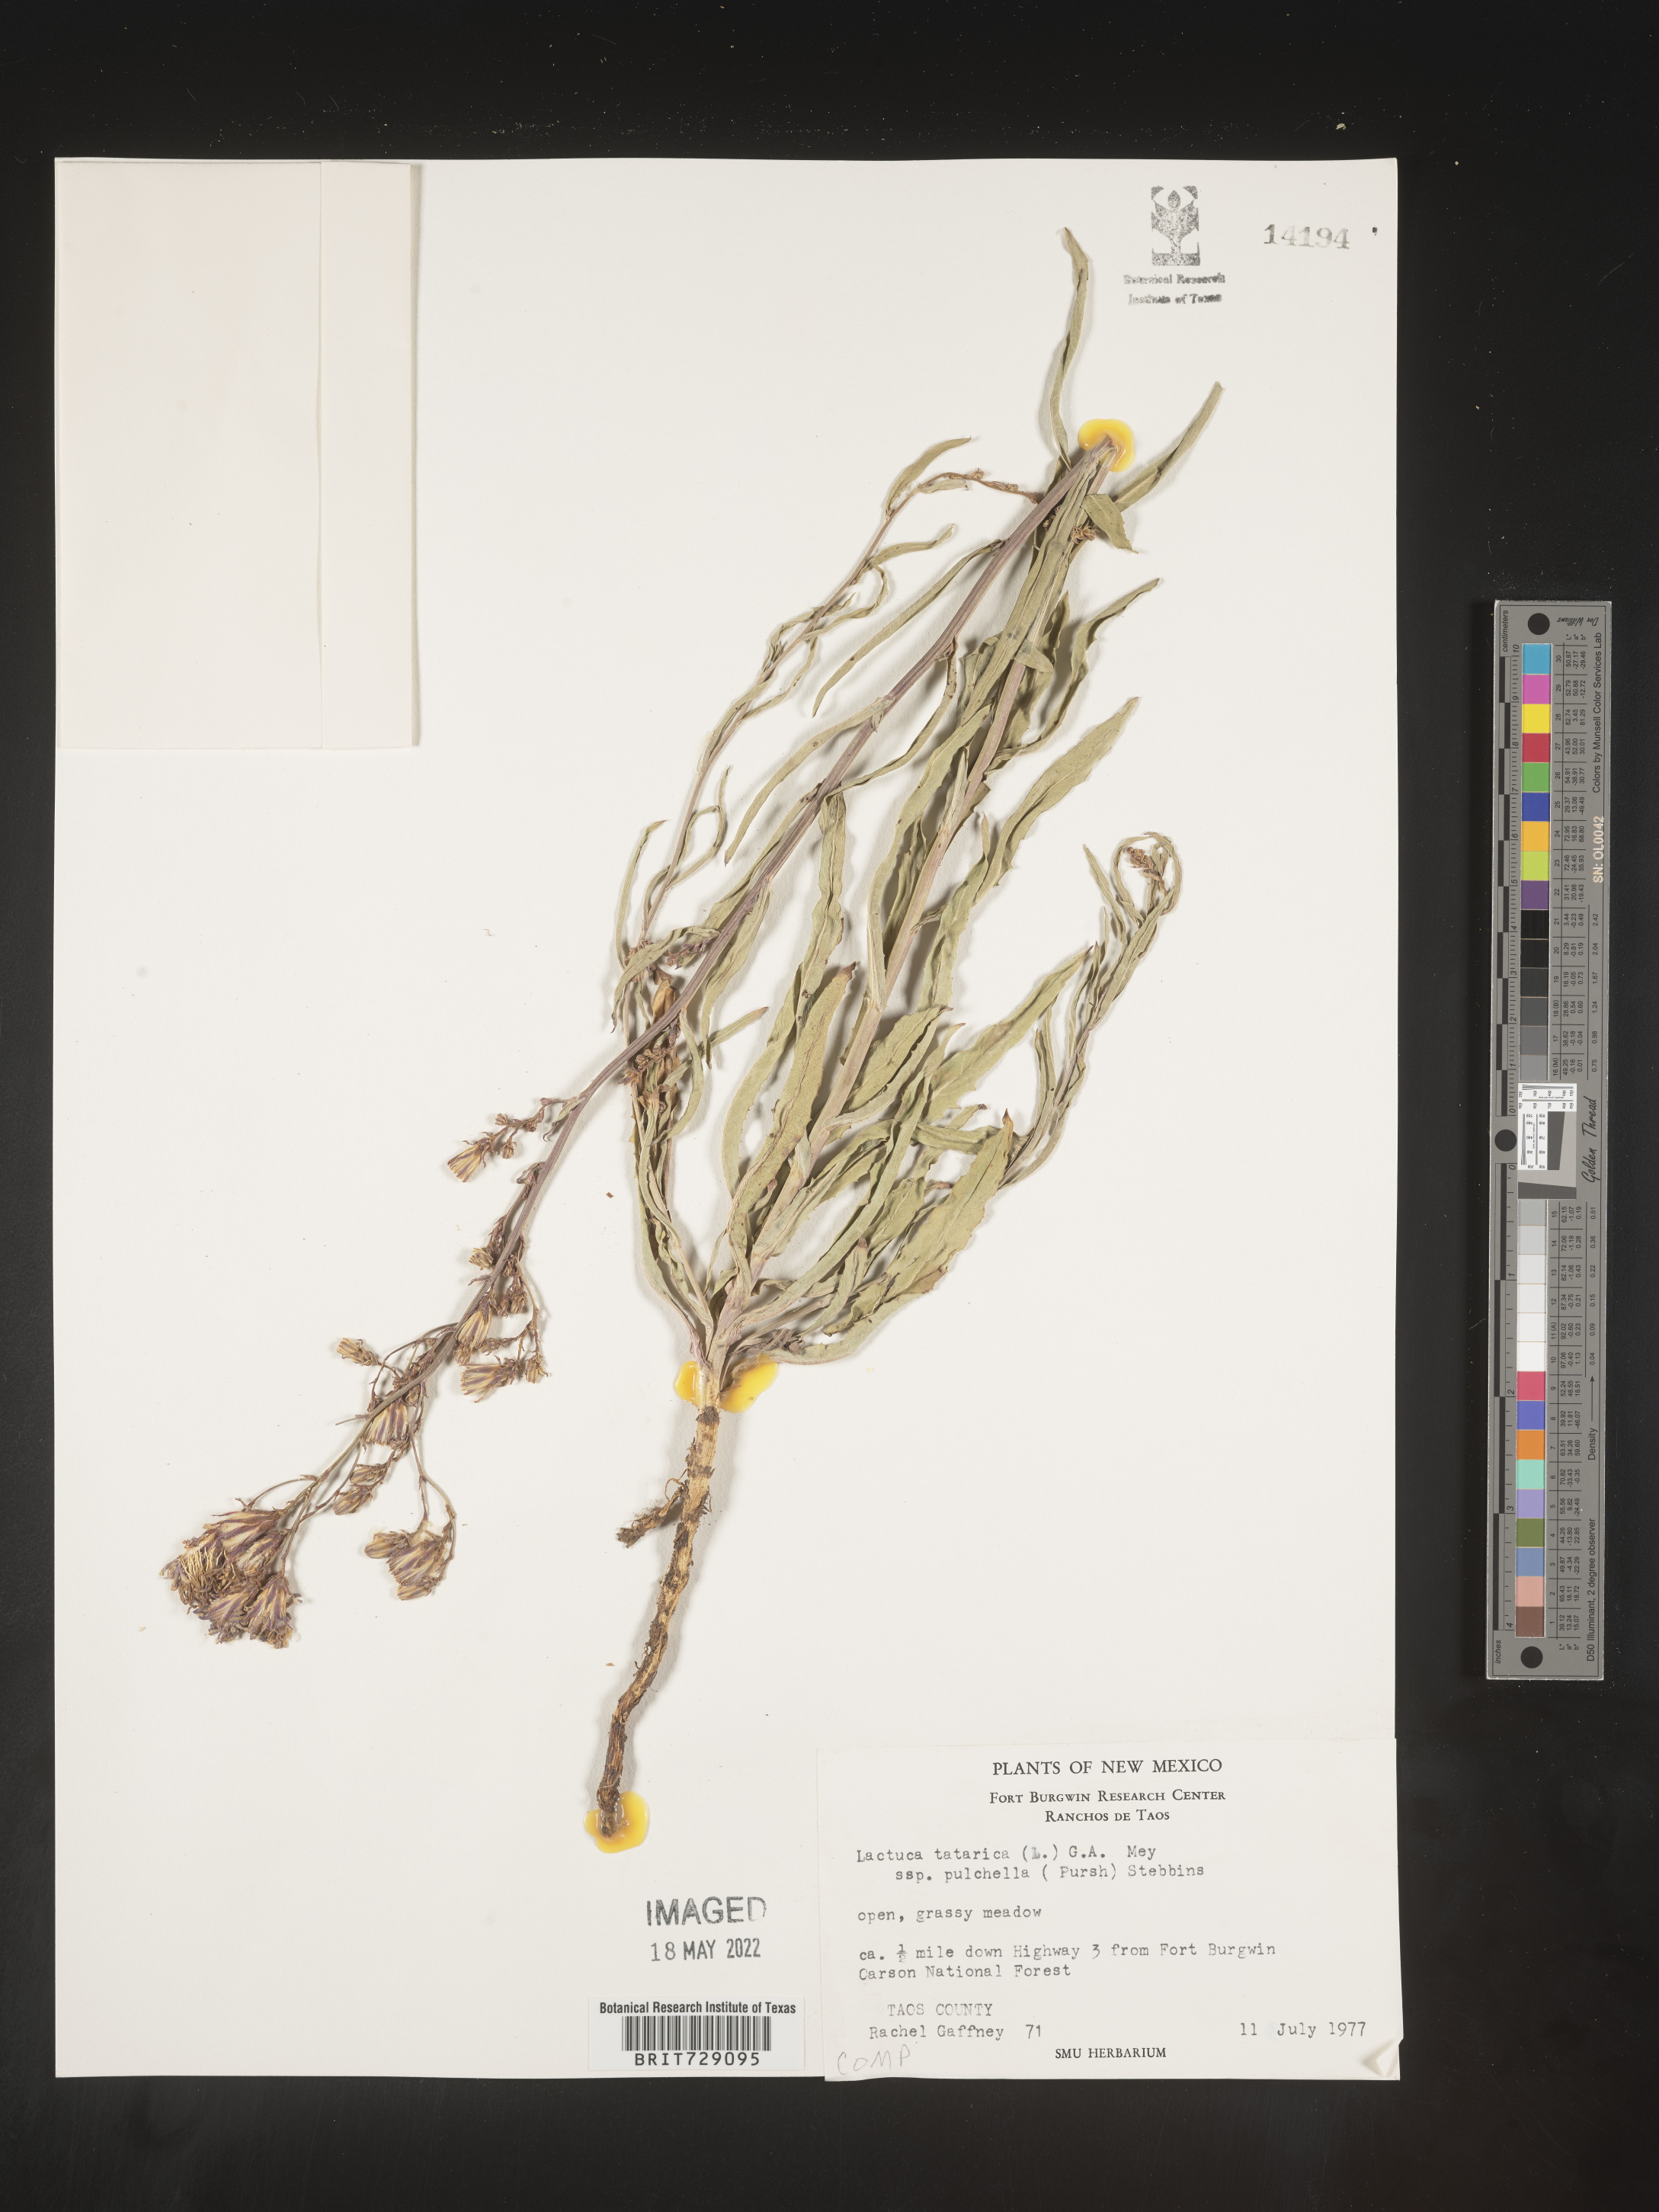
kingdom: Plantae
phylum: Tracheophyta
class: Magnoliopsida
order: Asterales
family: Asteraceae
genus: Lactuca
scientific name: Lactuca
